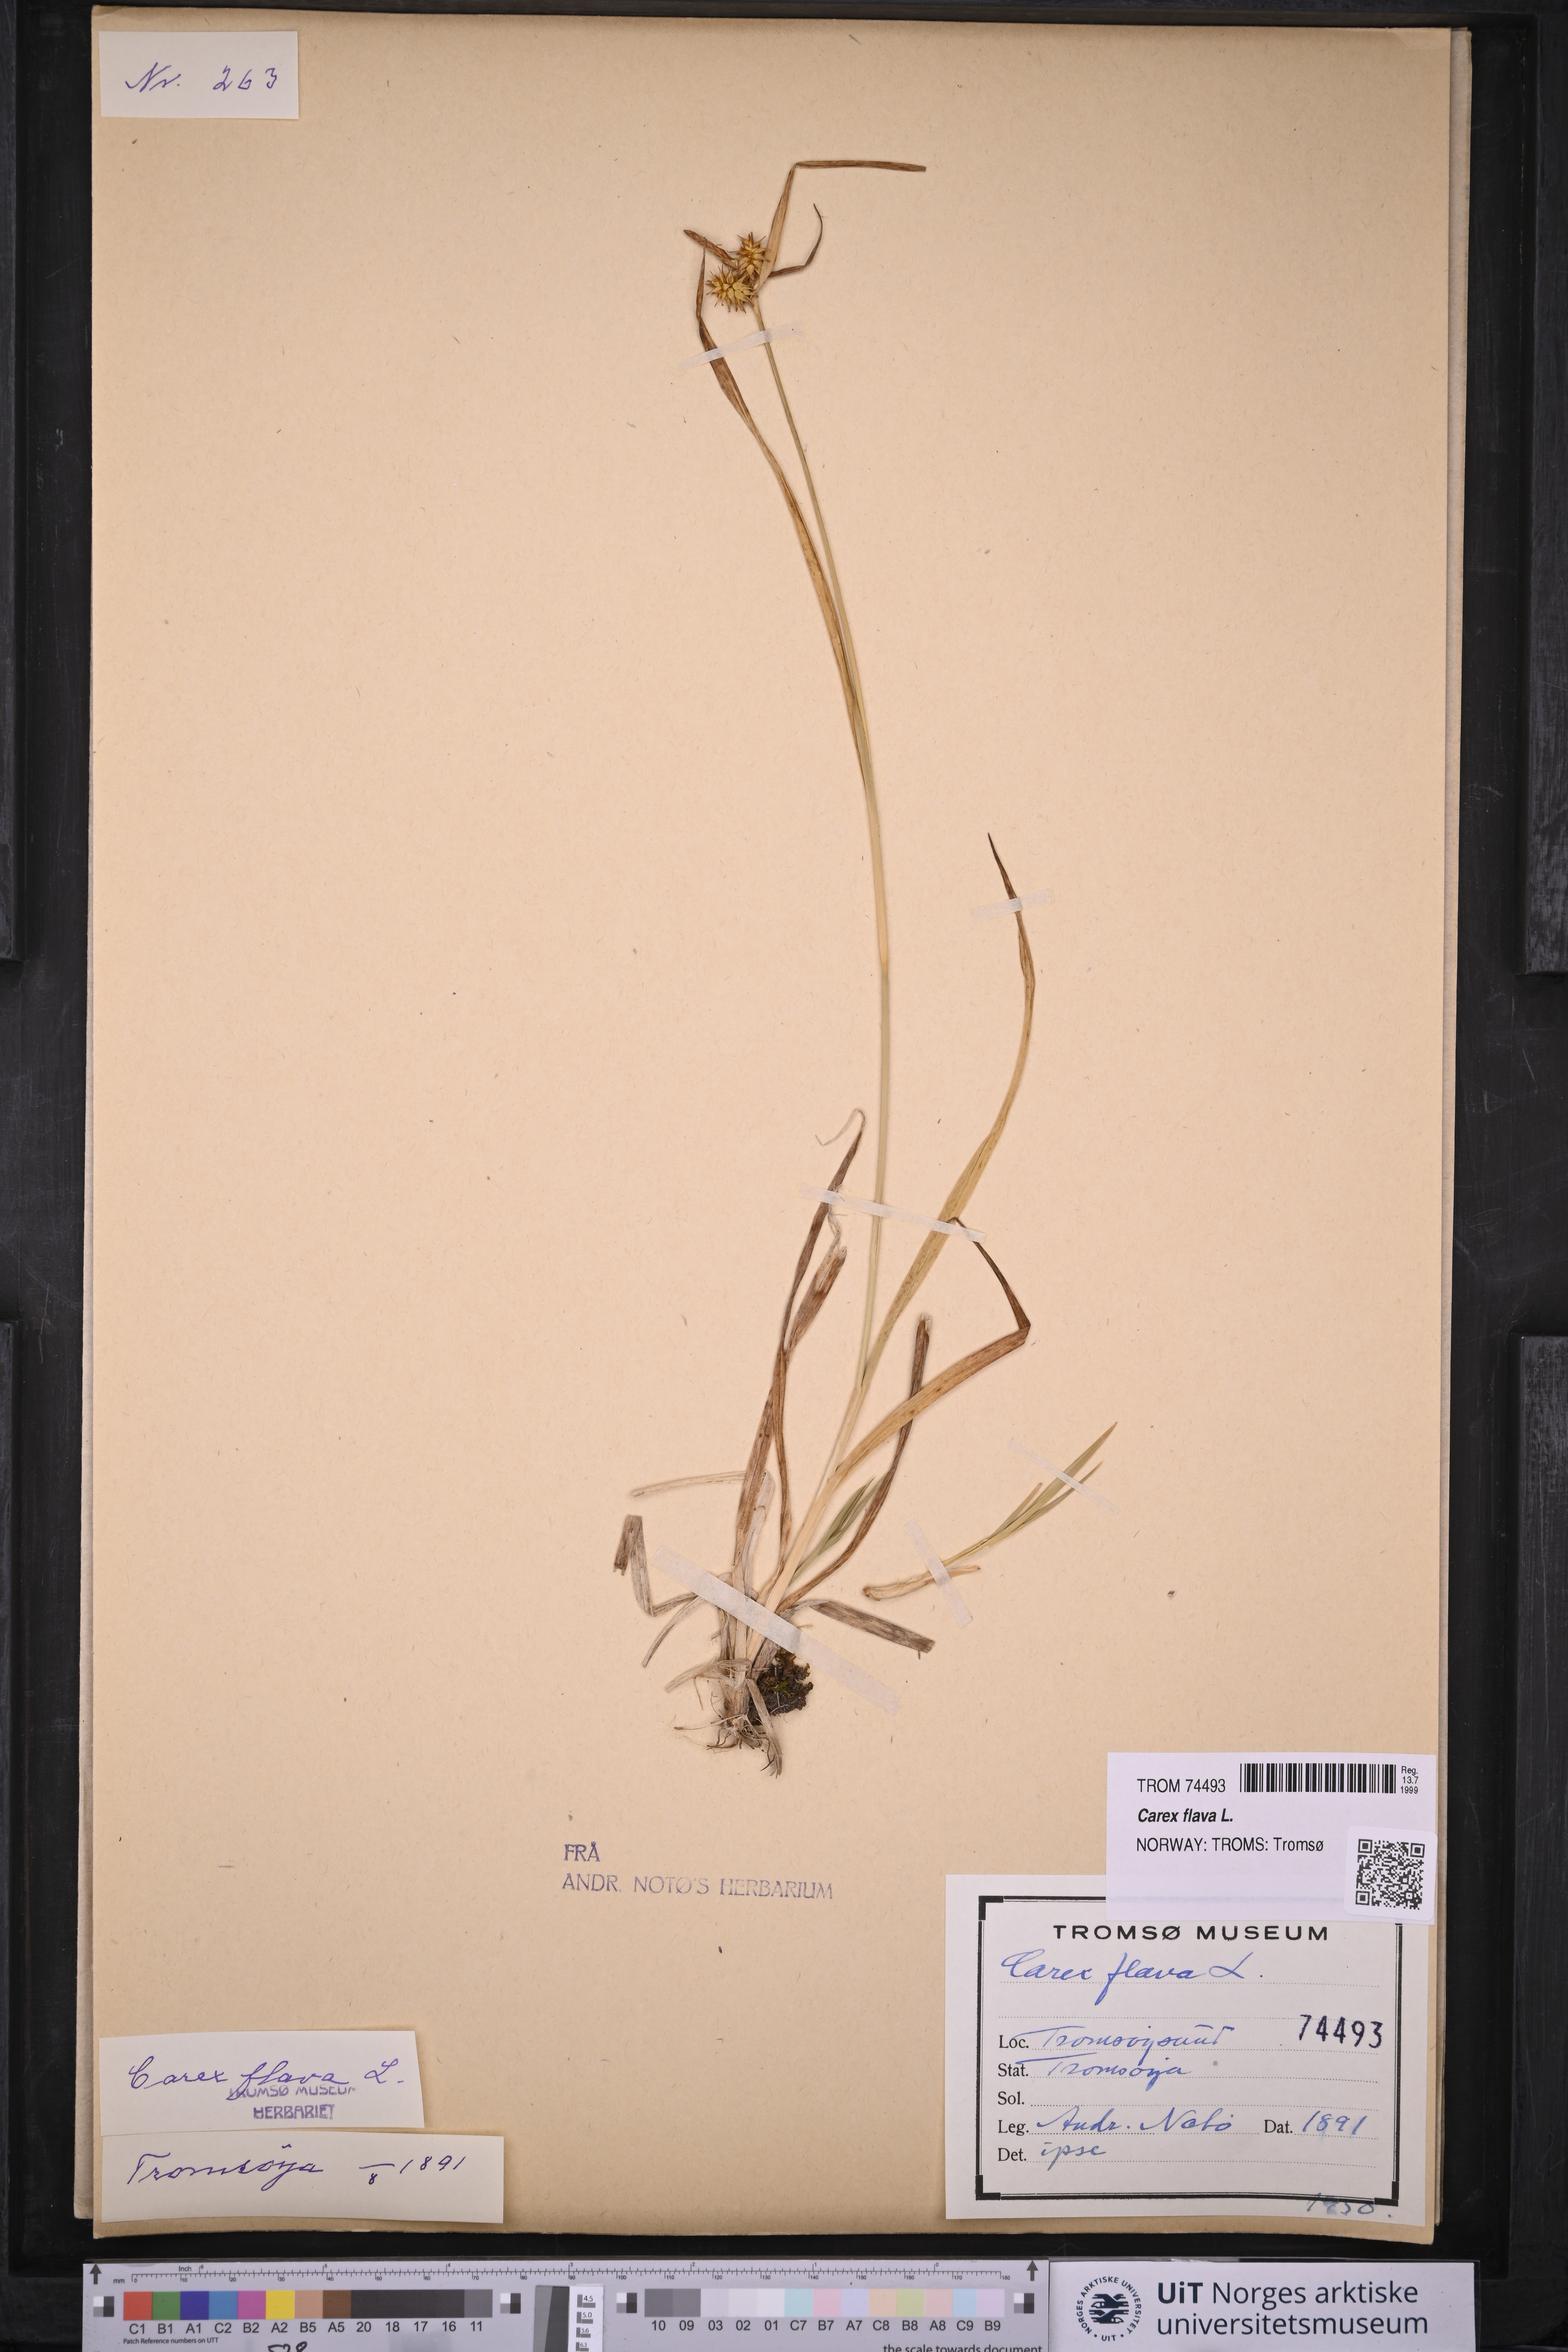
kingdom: Plantae
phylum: Tracheophyta
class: Liliopsida
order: Poales
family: Cyperaceae
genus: Carex
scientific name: Carex flava
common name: Large yellow-sedge
